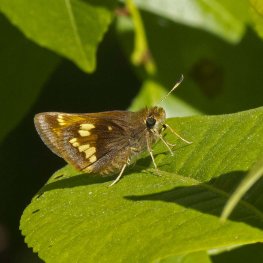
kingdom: Animalia
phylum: Arthropoda
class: Insecta
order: Lepidoptera
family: Hesperiidae
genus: Lon
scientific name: Lon hobomok
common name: Hobomok Skipper
